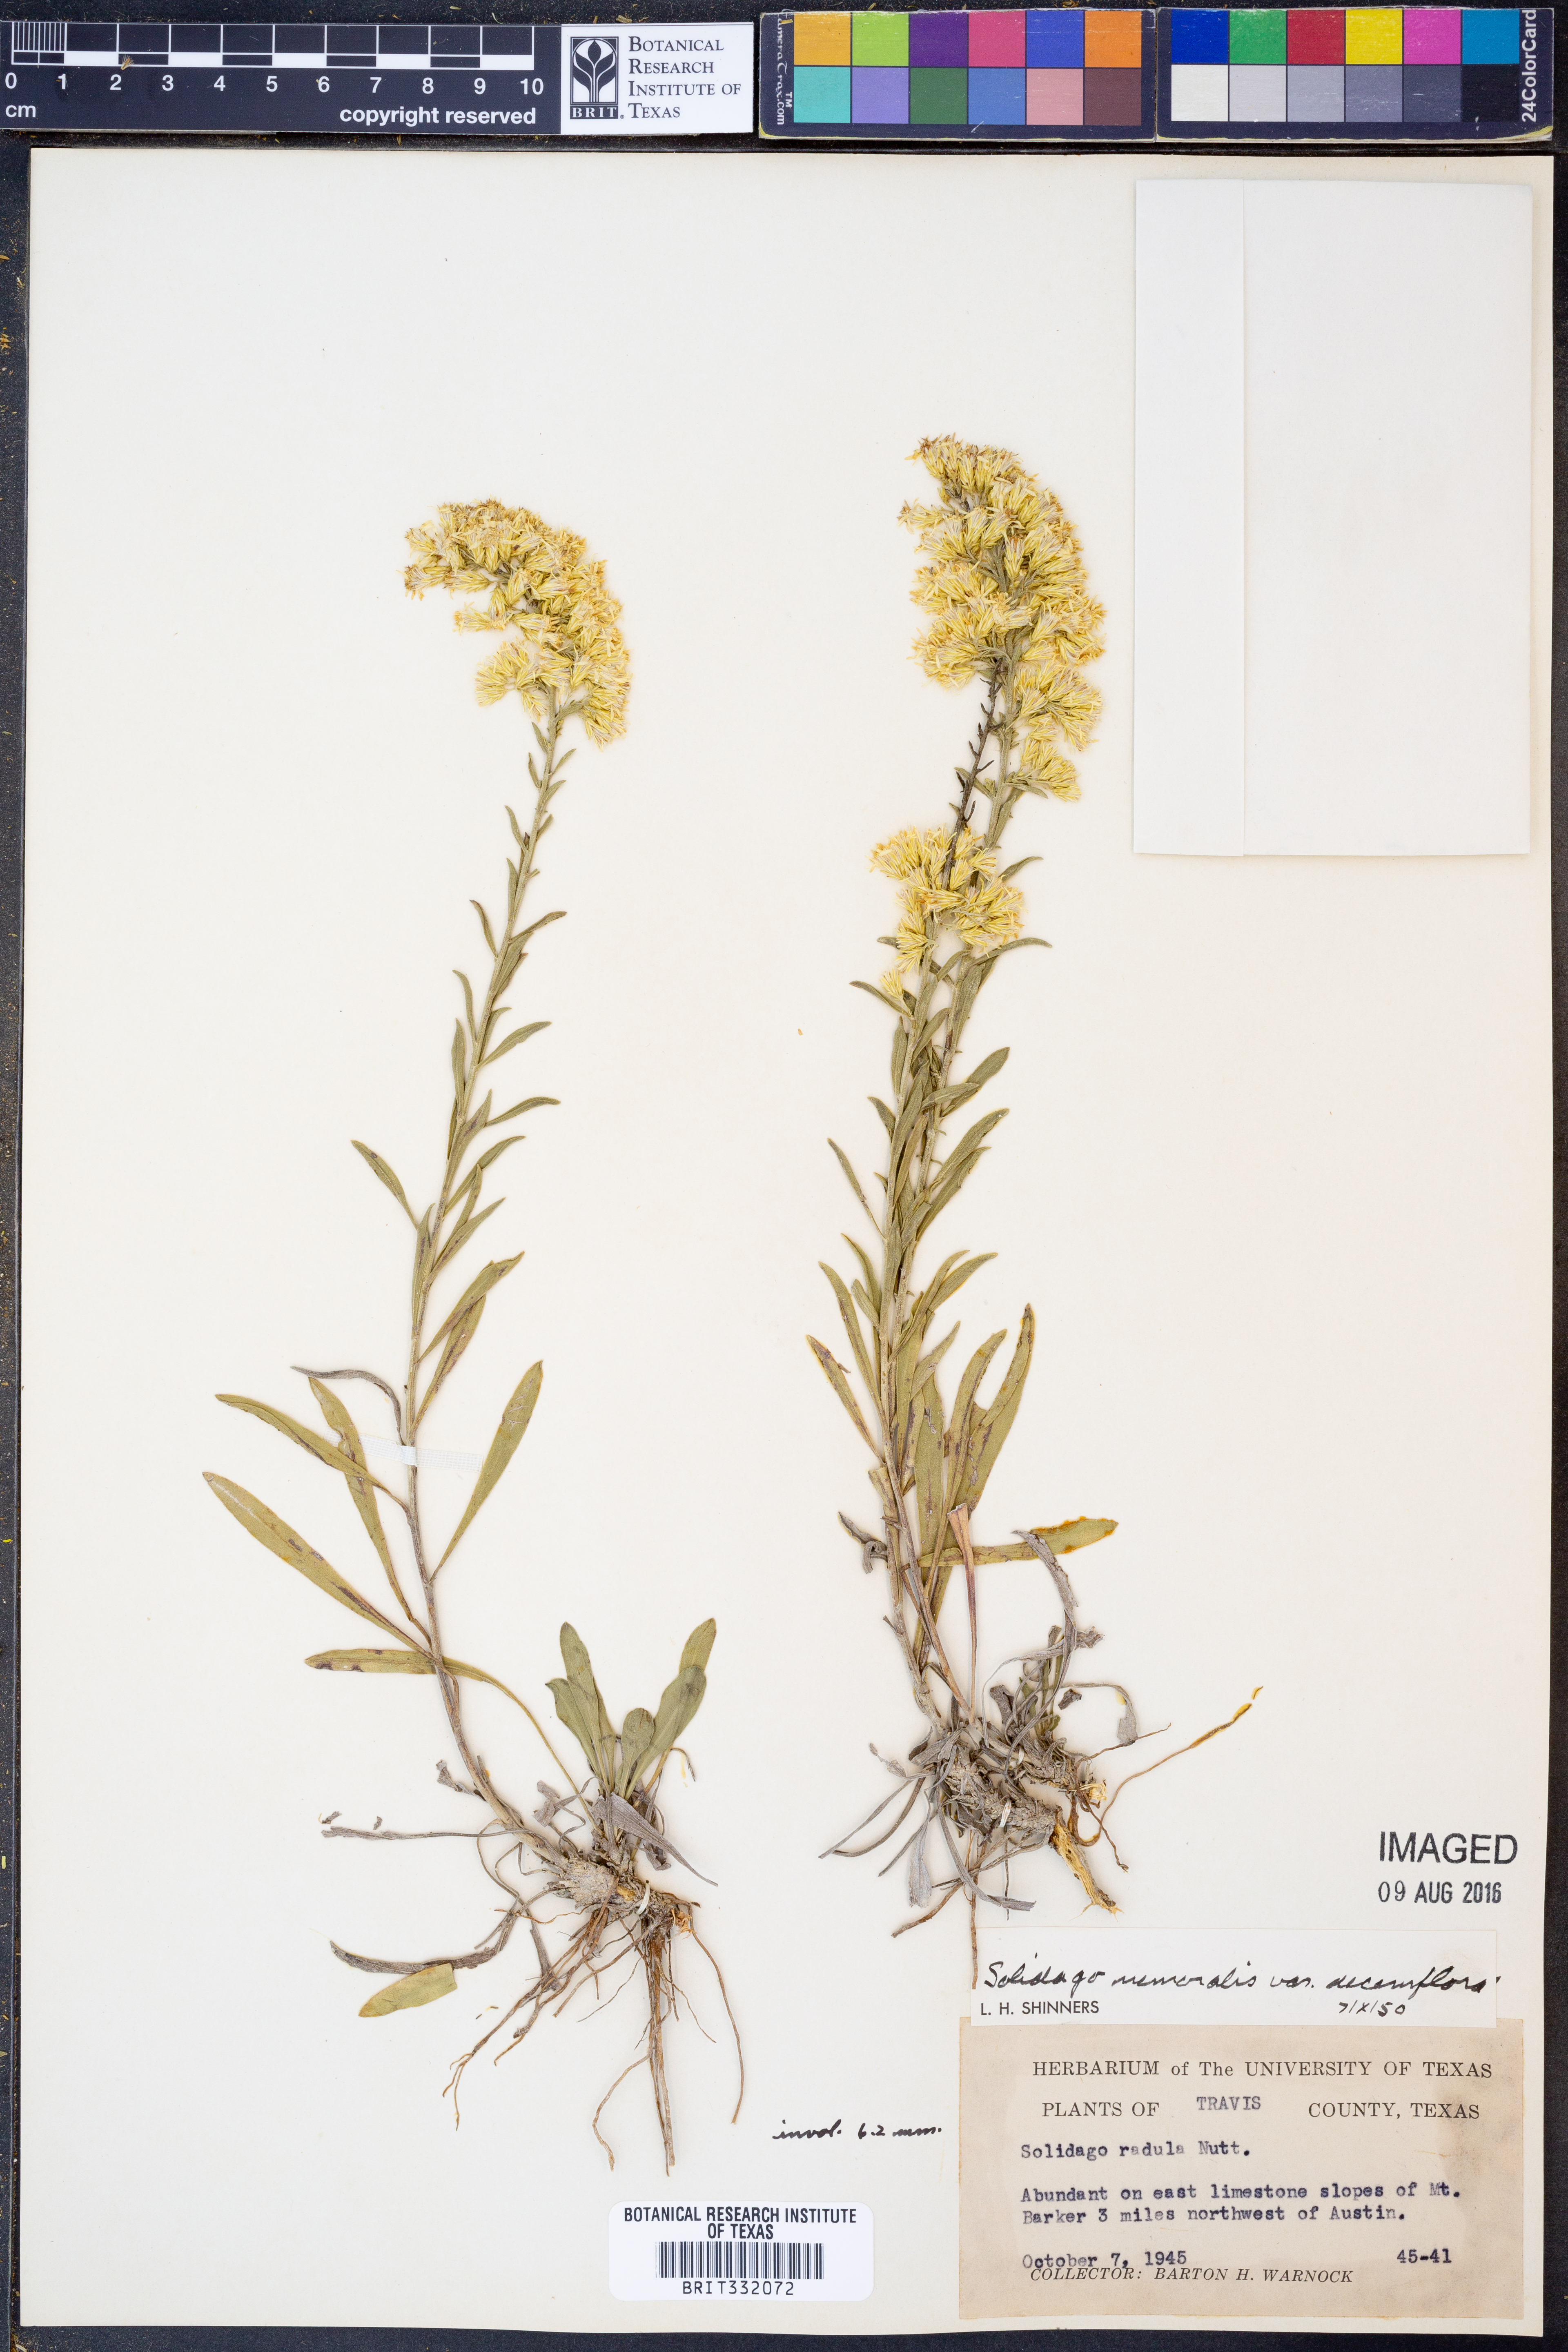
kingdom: Plantae
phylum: Tracheophyta
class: Magnoliopsida
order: Asterales
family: Asteraceae
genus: Solidago
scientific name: Solidago decemflora
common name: Prairie grey-stemmed goldenrod
